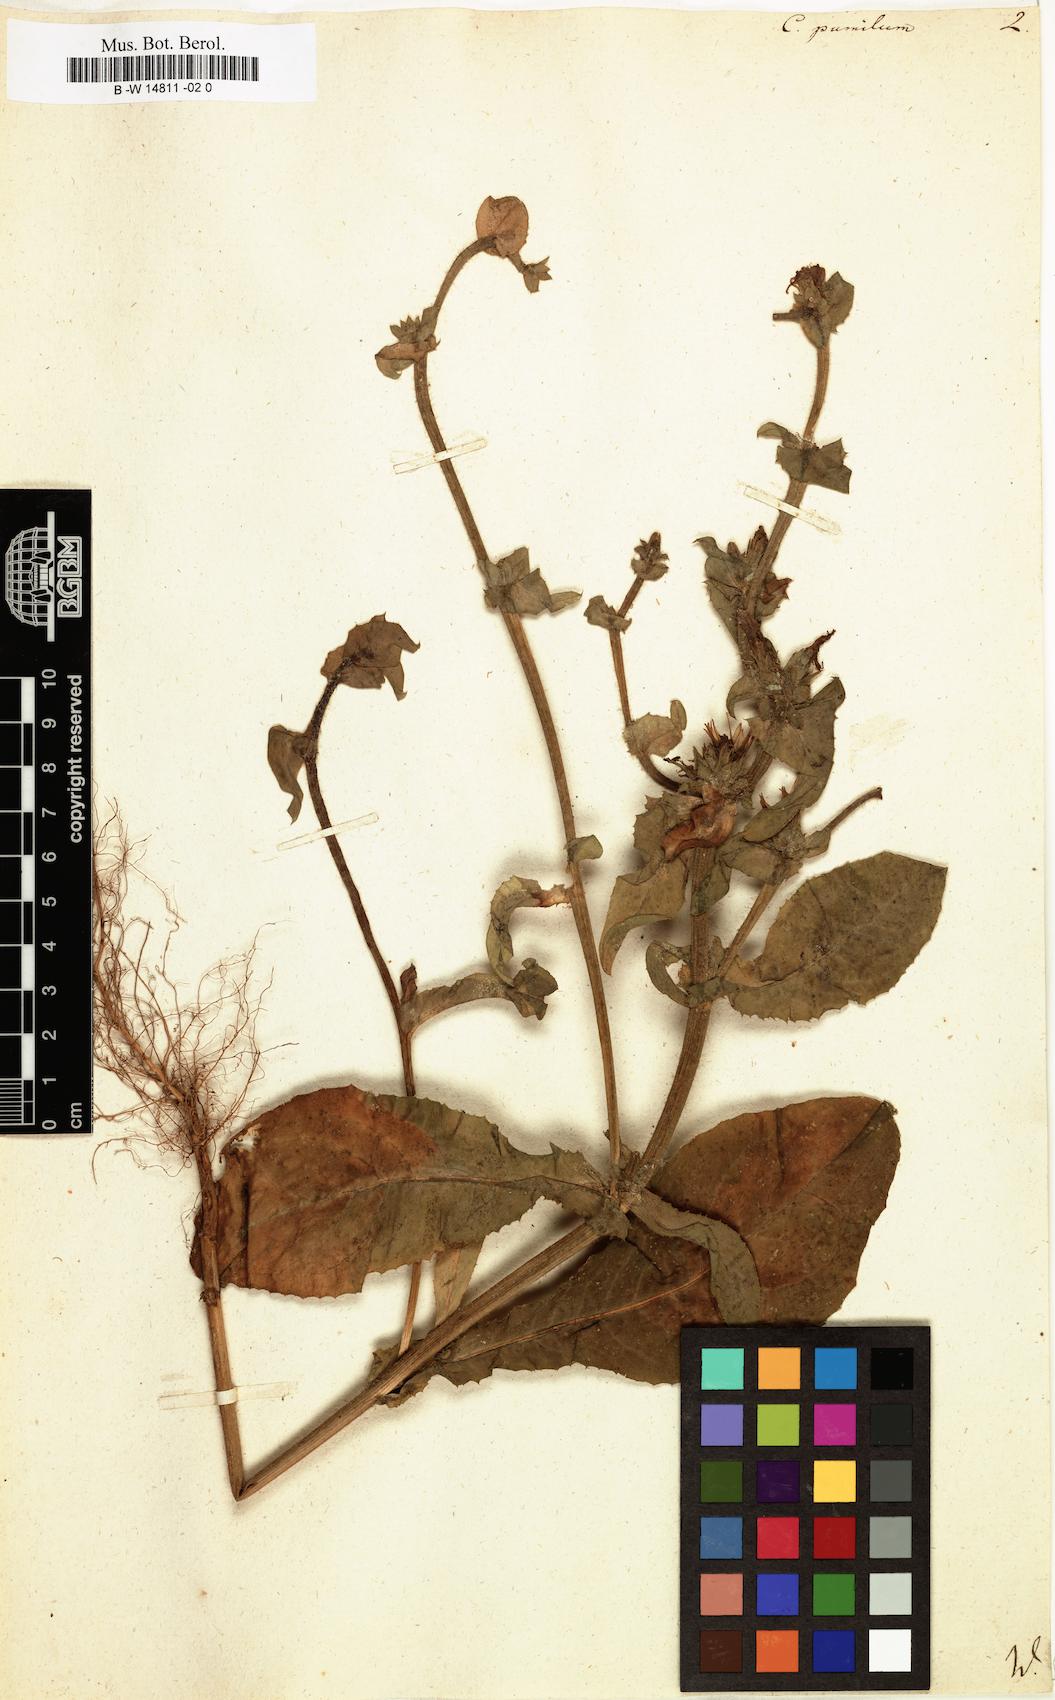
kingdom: Plantae
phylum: Tracheophyta
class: Magnoliopsida
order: Asterales
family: Asteraceae
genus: Cichorium
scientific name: Cichorium pumilum
